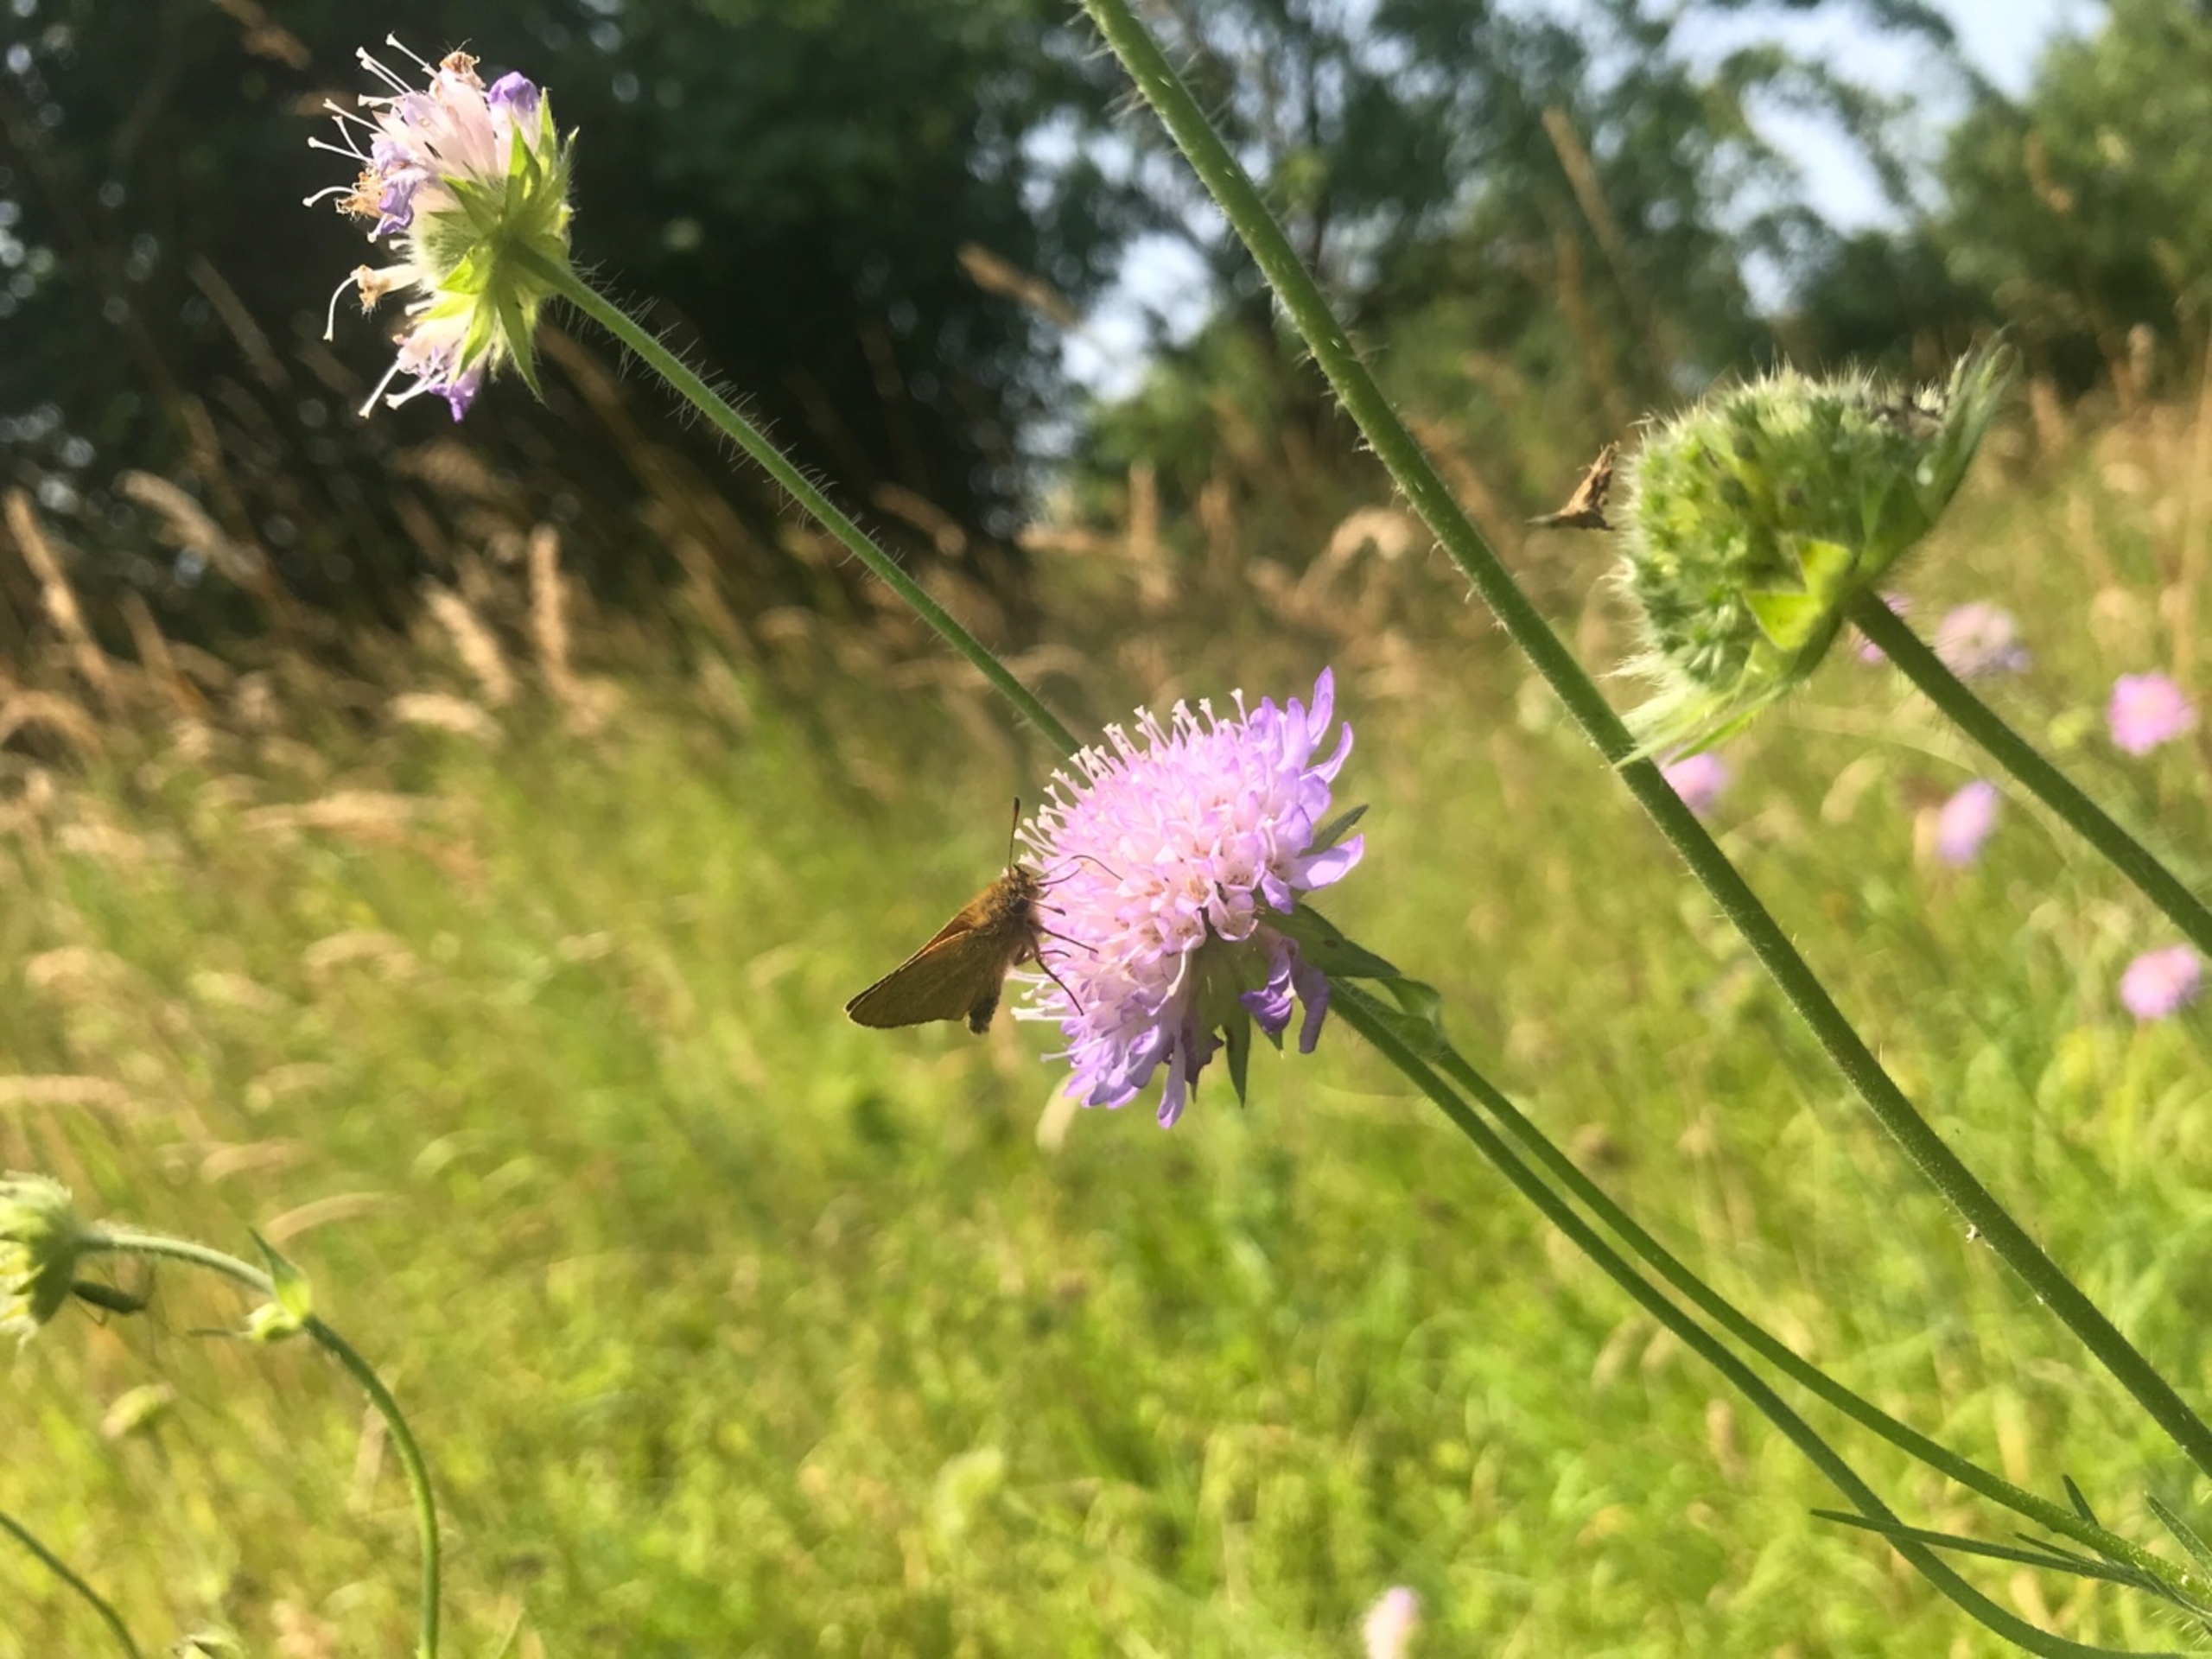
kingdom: Animalia
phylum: Arthropoda
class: Insecta
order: Lepidoptera
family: Hesperiidae
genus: Thymelicus
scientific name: Thymelicus lineola
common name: Stregbredpande
